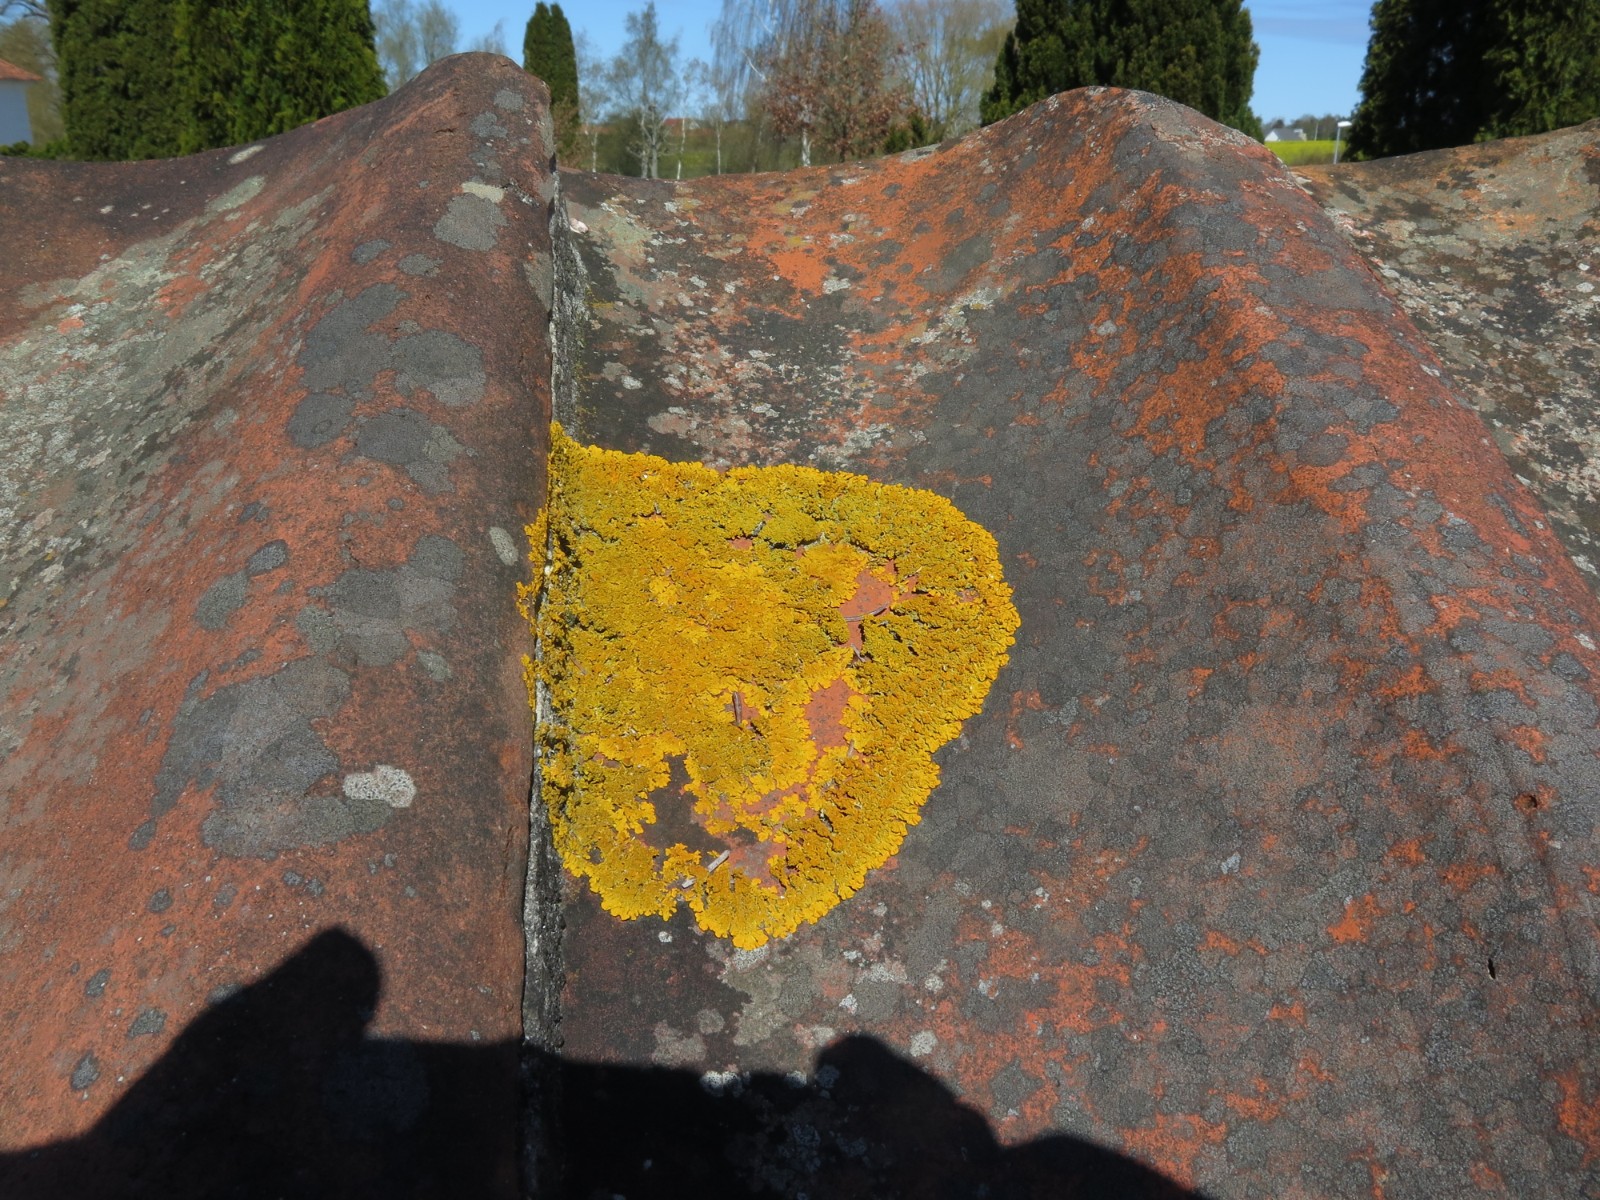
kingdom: Fungi
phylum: Ascomycota
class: Lecanoromycetes
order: Teloschistales
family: Teloschistaceae
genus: Xanthoria
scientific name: Xanthoria calcicola
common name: vortet væggelav
